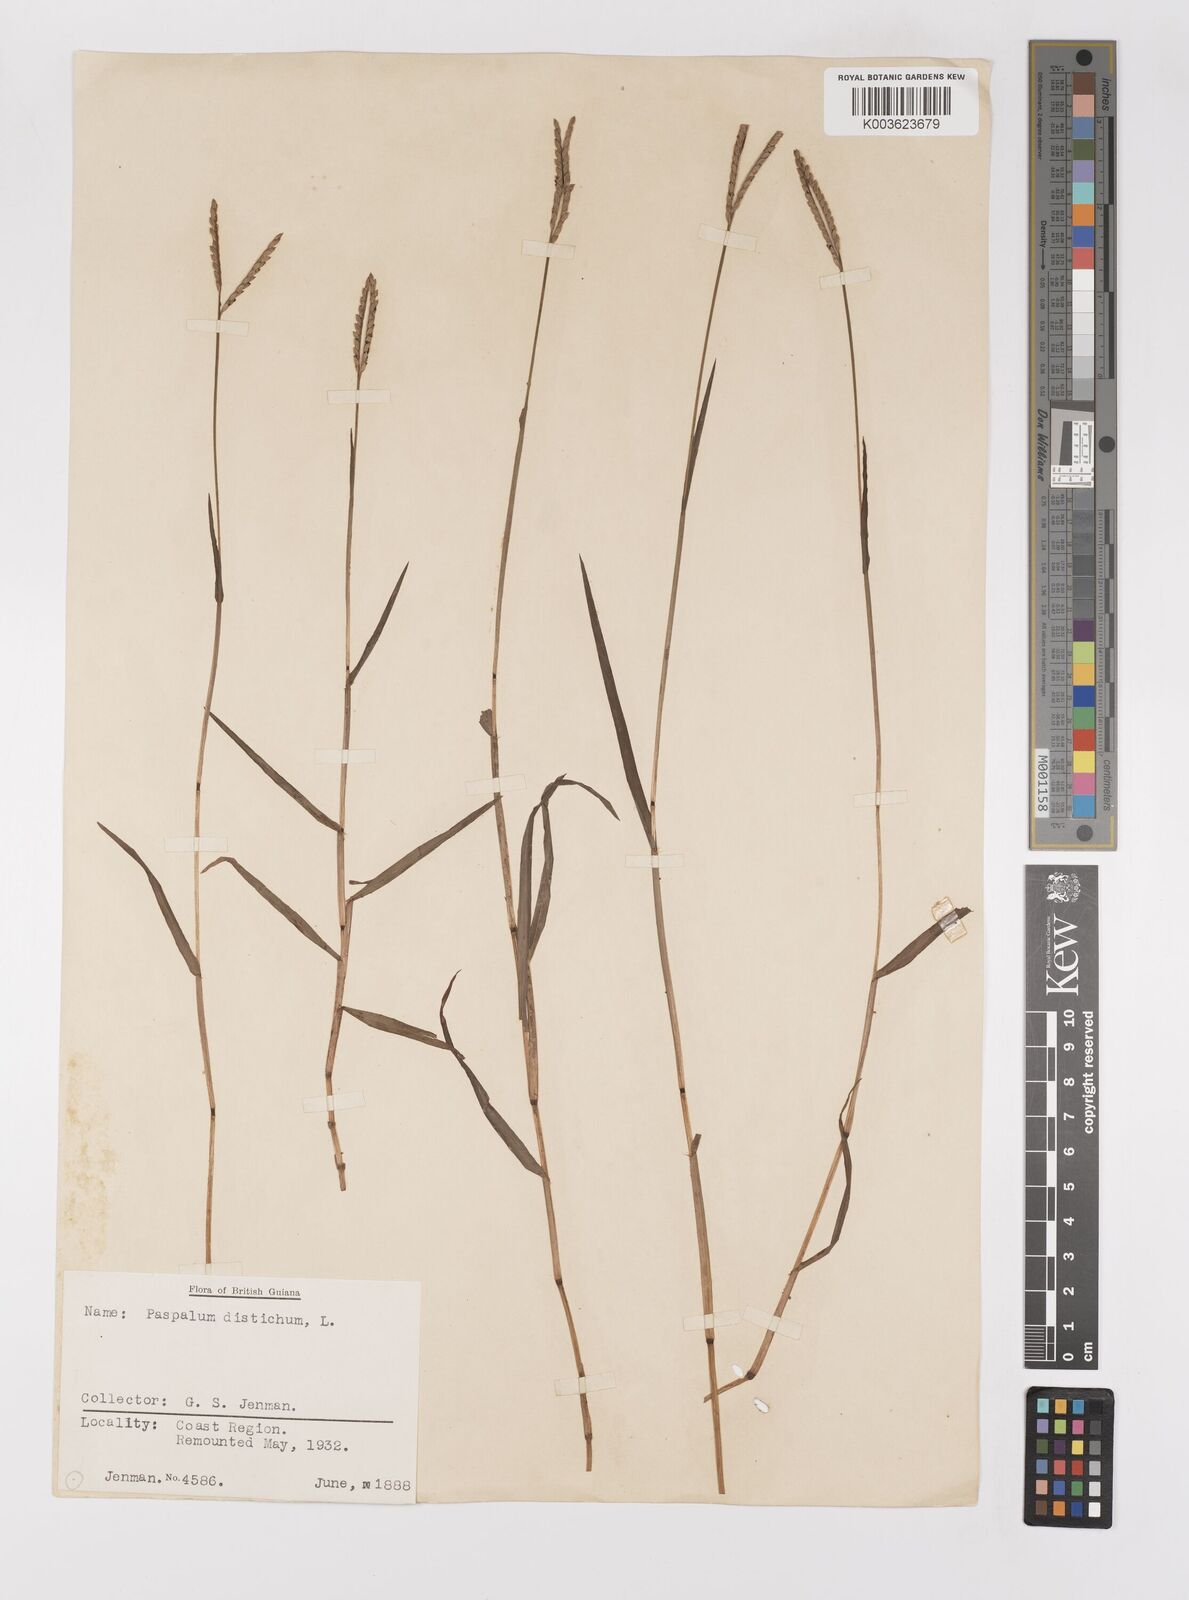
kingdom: Plantae
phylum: Tracheophyta
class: Liliopsida
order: Poales
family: Poaceae
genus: Paspalum
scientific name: Paspalum distichum
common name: Knotgrass
